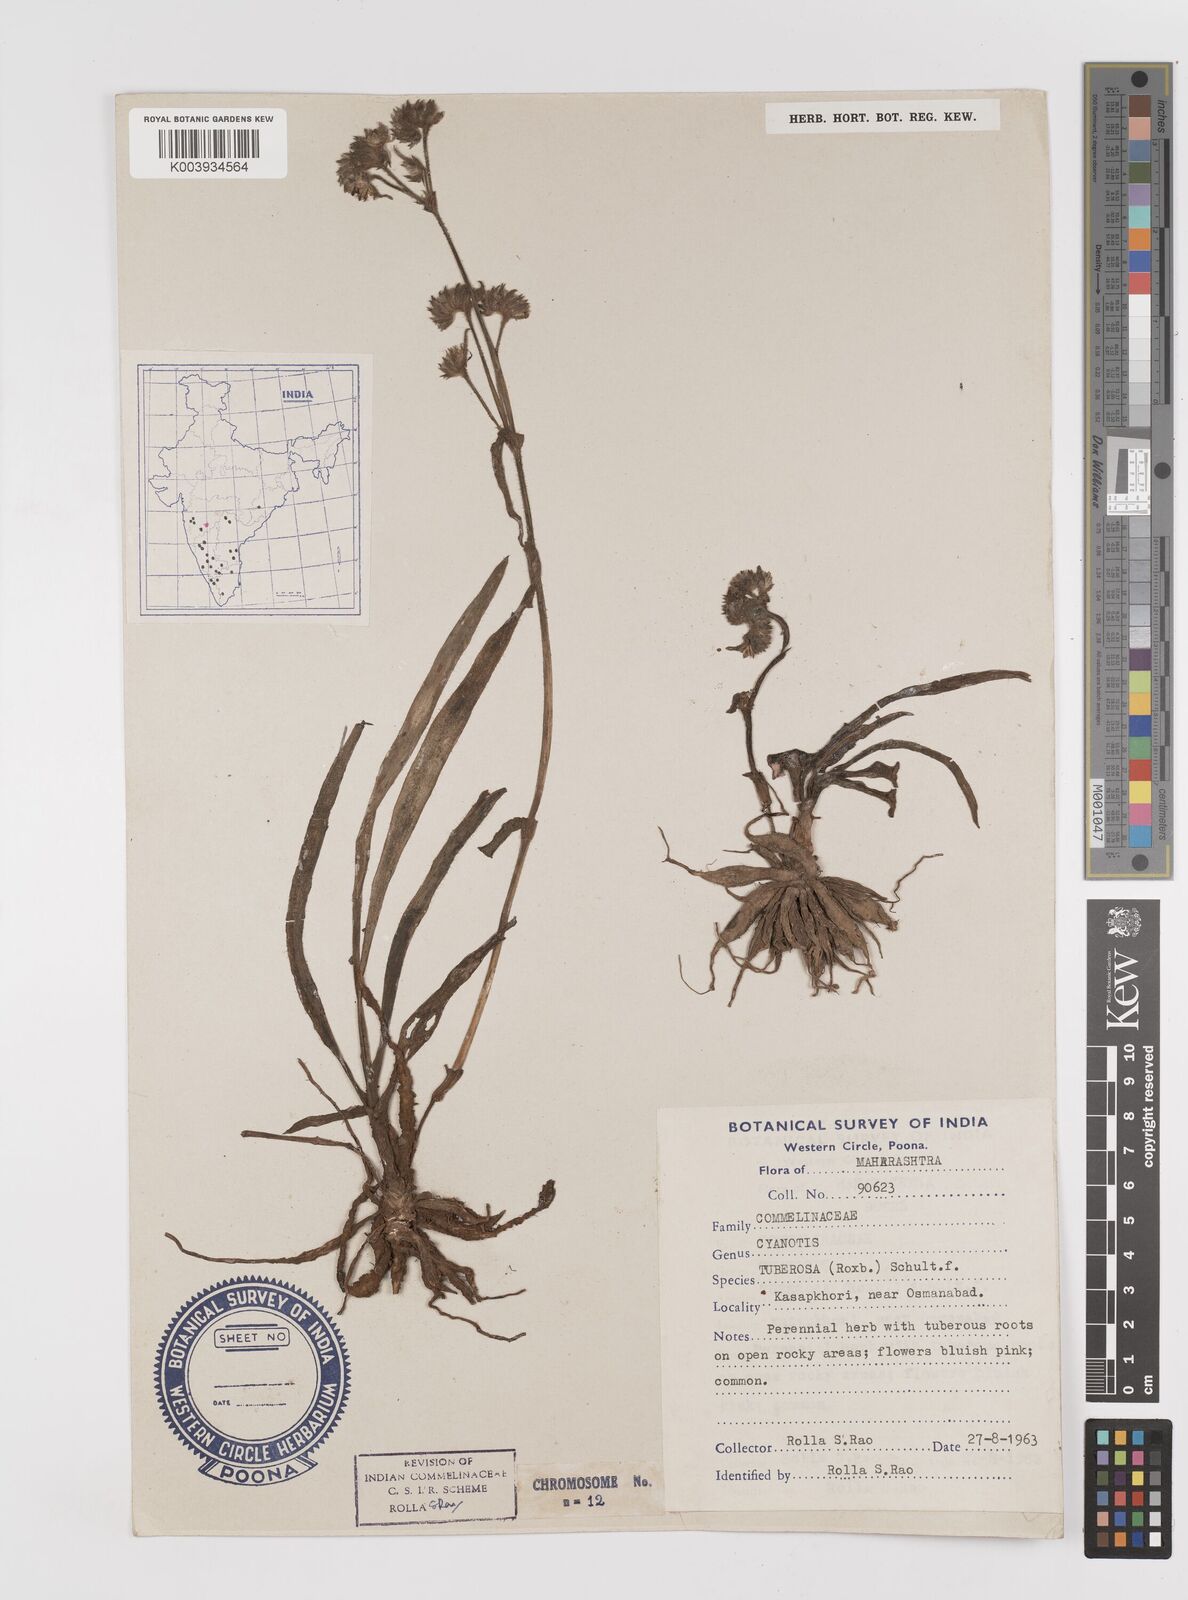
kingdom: Plantae
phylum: Tracheophyta
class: Liliopsida
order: Commelinales
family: Commelinaceae
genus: Cyanotis
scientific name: Cyanotis tuberosa
